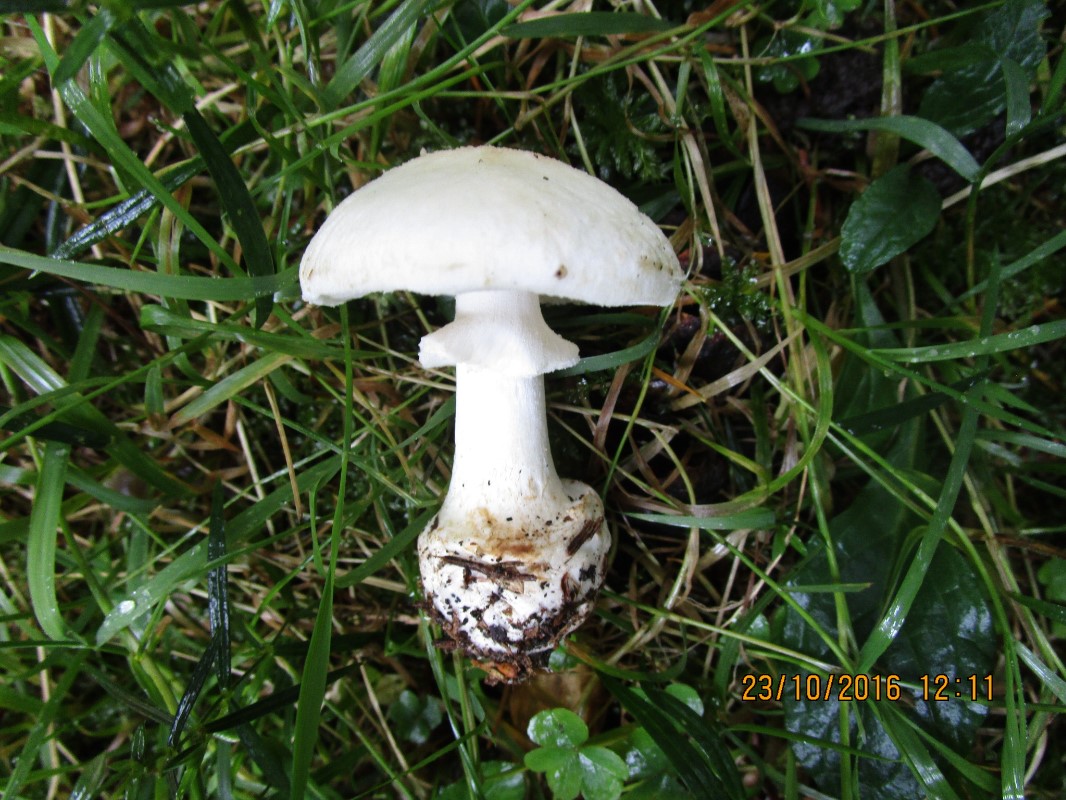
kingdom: Fungi
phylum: Basidiomycota
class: Agaricomycetes
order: Agaricales
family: Amanitaceae
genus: Amanita
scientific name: Amanita citrina
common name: False death-cap
